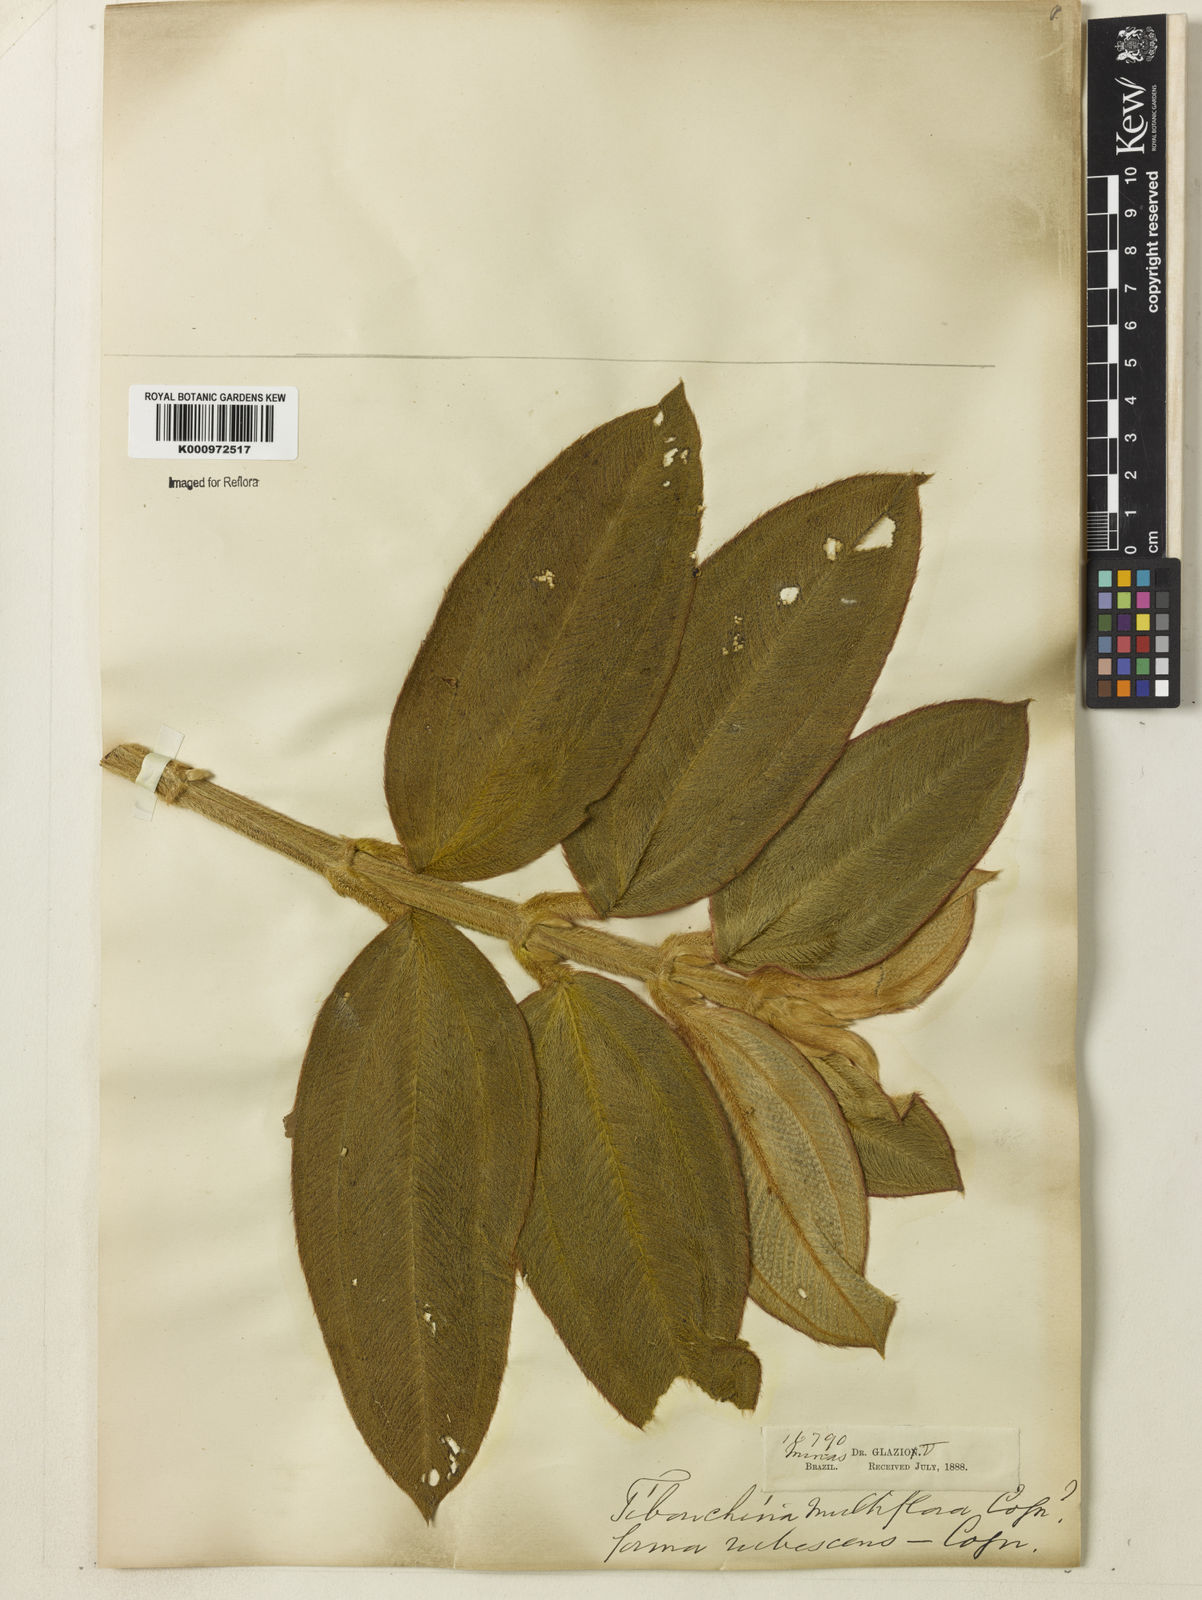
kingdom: Plantae
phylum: Tracheophyta
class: Magnoliopsida
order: Myrtales
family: Melastomataceae
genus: Pleroma
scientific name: Pleroma heteromallum
